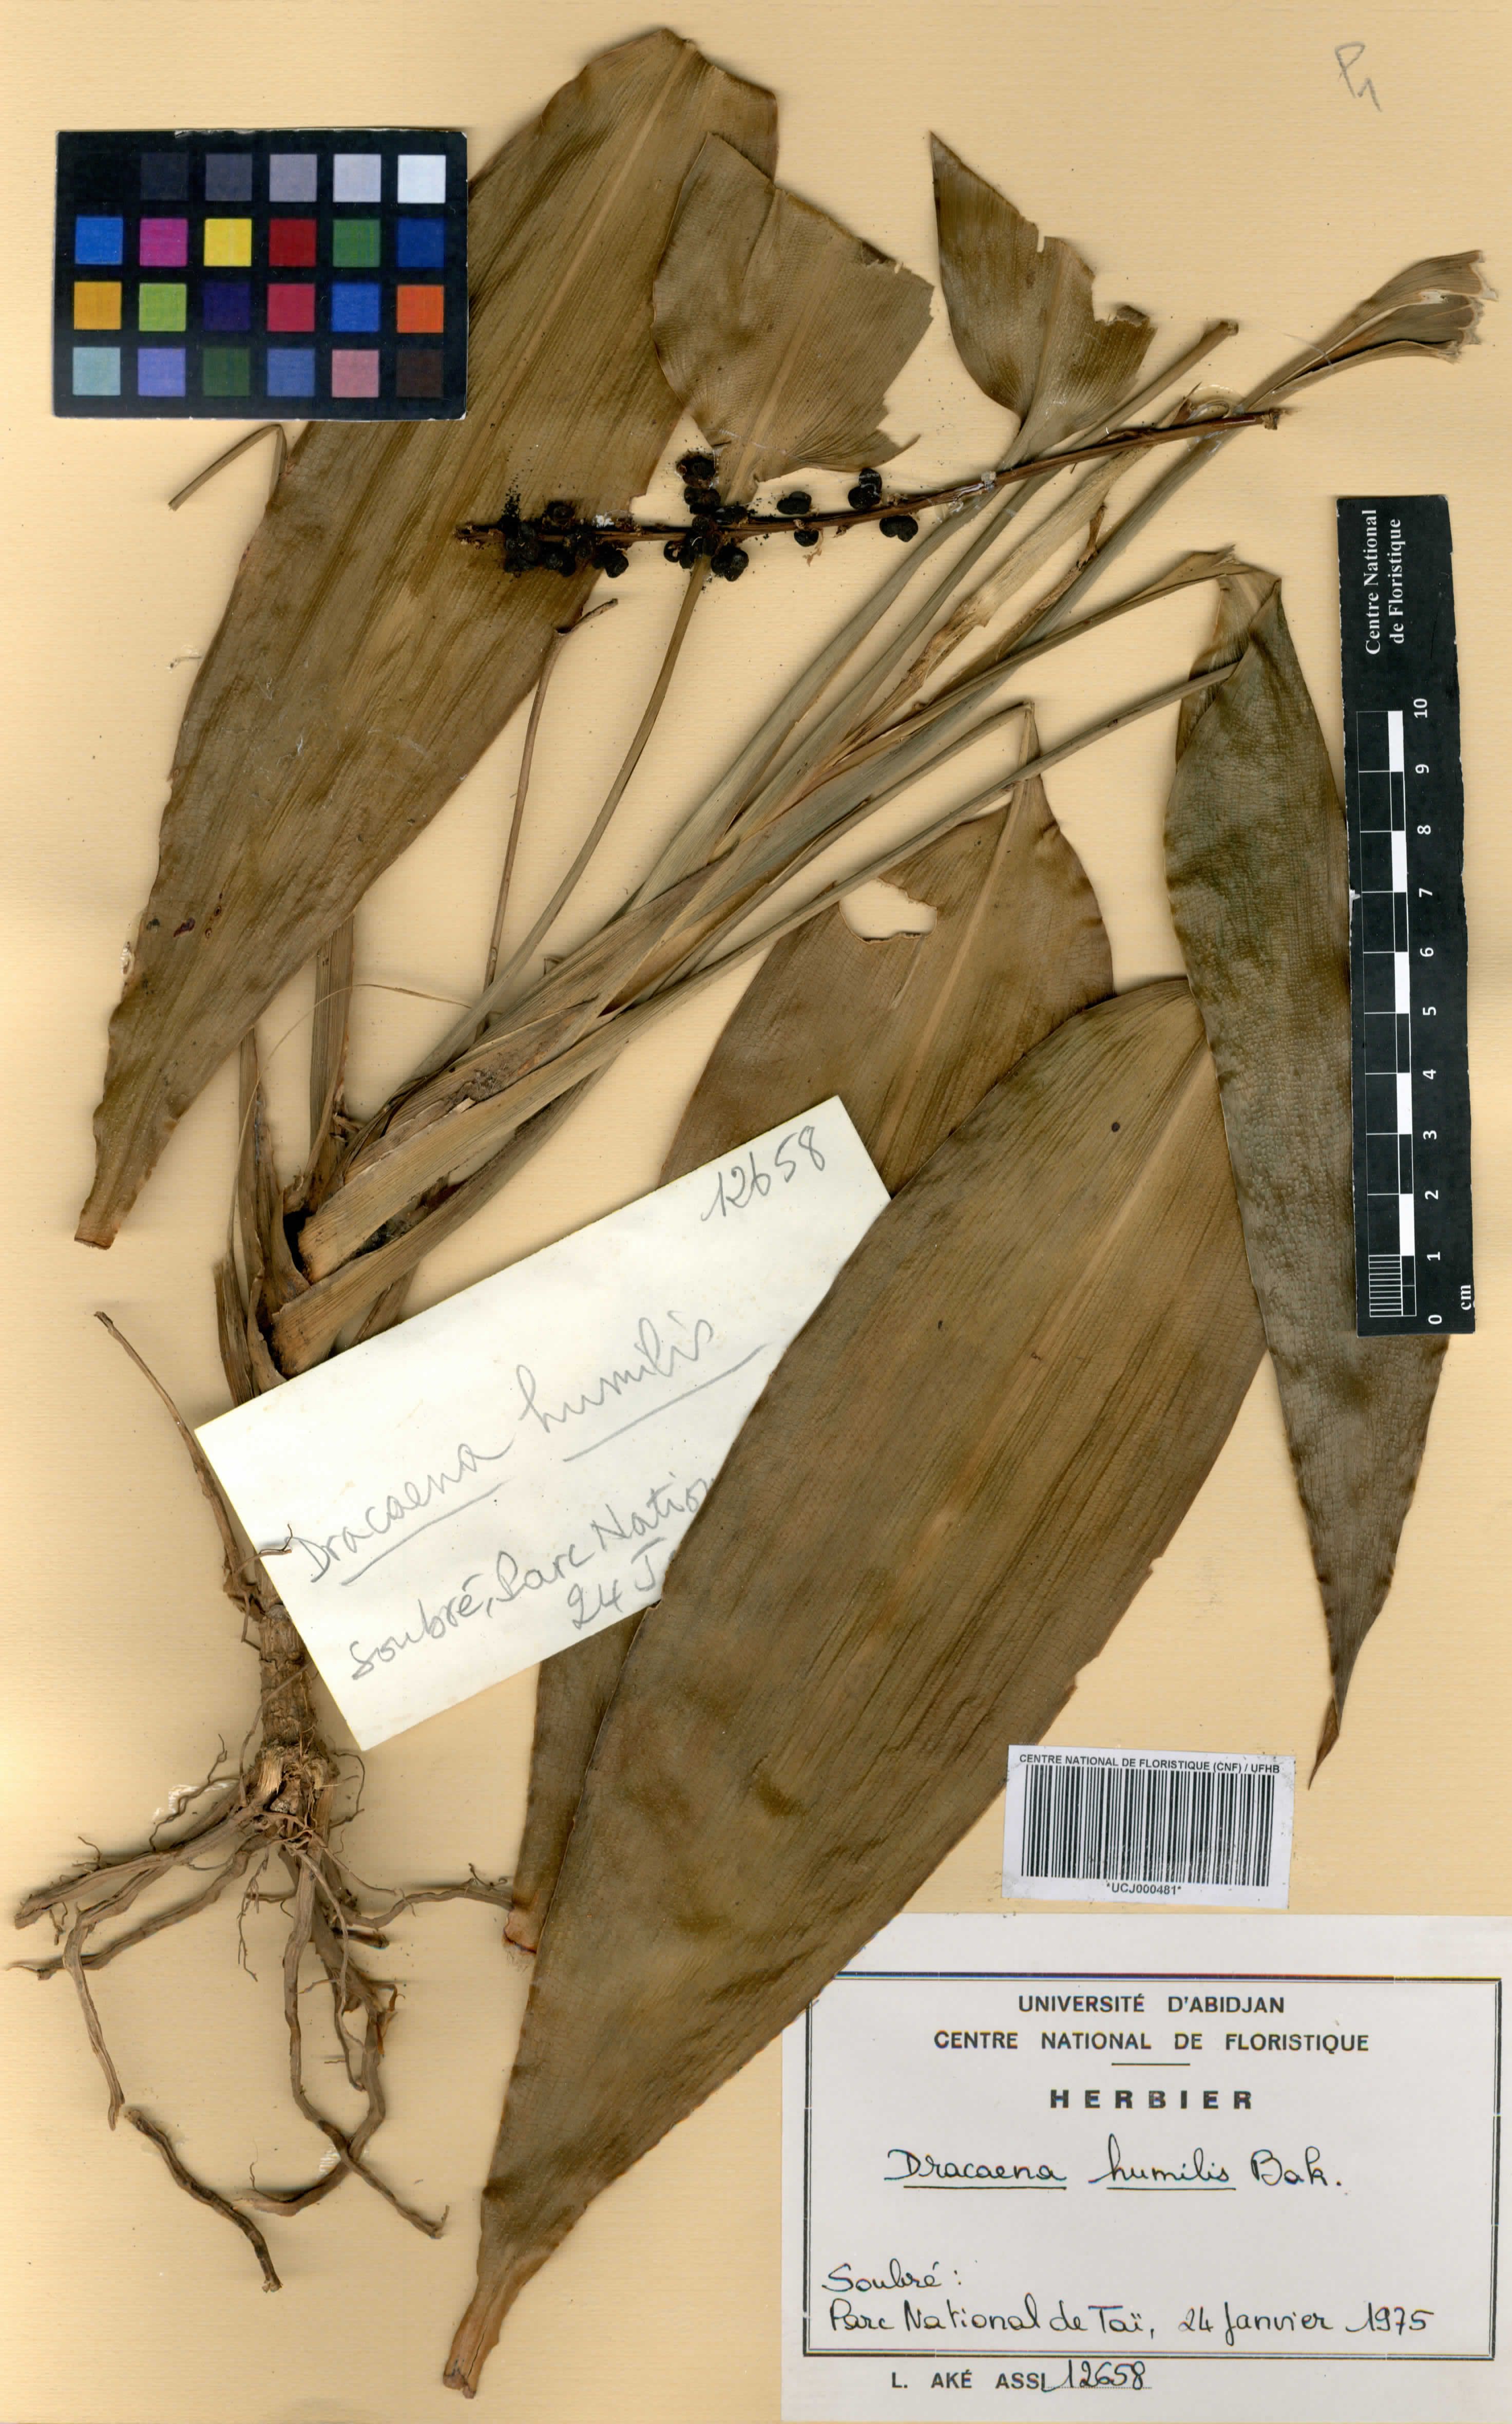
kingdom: Plantae
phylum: Tracheophyta
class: Liliopsida
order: Asparagales
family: Asparagaceae
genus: Dracaena
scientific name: Dracaena aubryana
